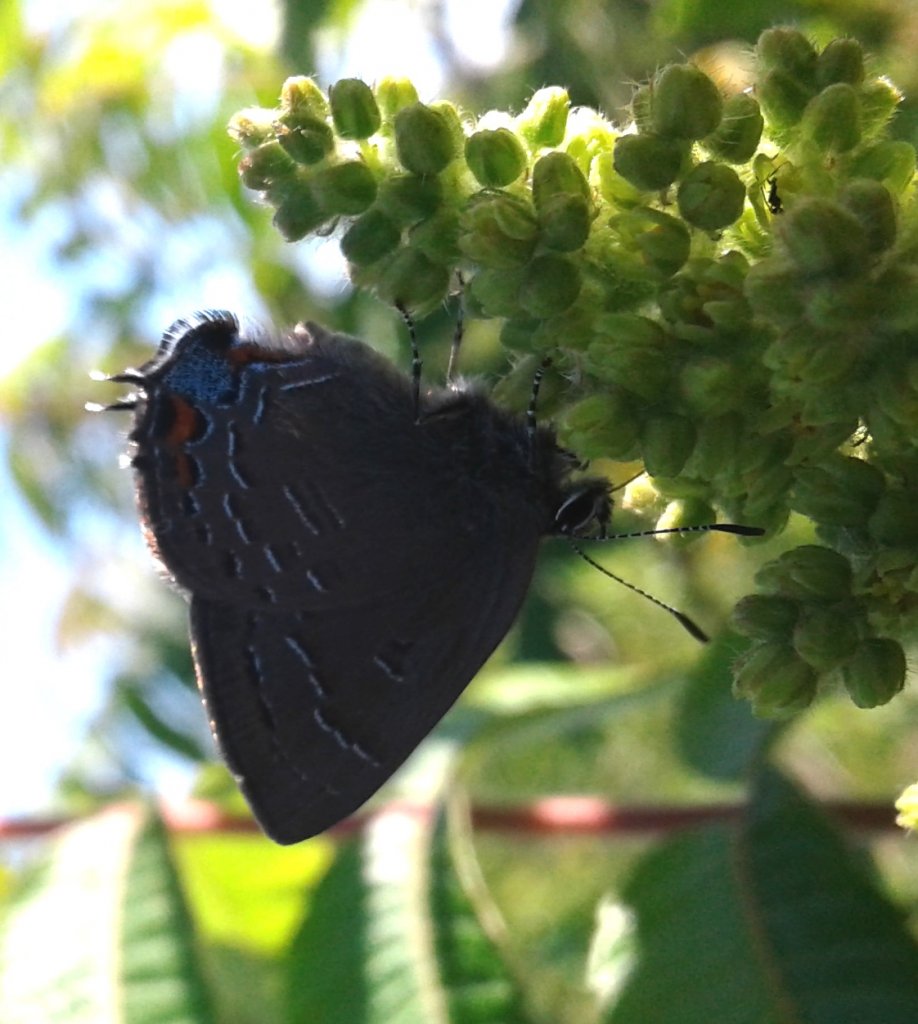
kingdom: Animalia
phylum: Arthropoda
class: Insecta
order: Lepidoptera
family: Lycaenidae
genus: Satyrium
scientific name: Satyrium calanus
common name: Banded Hairstreak
